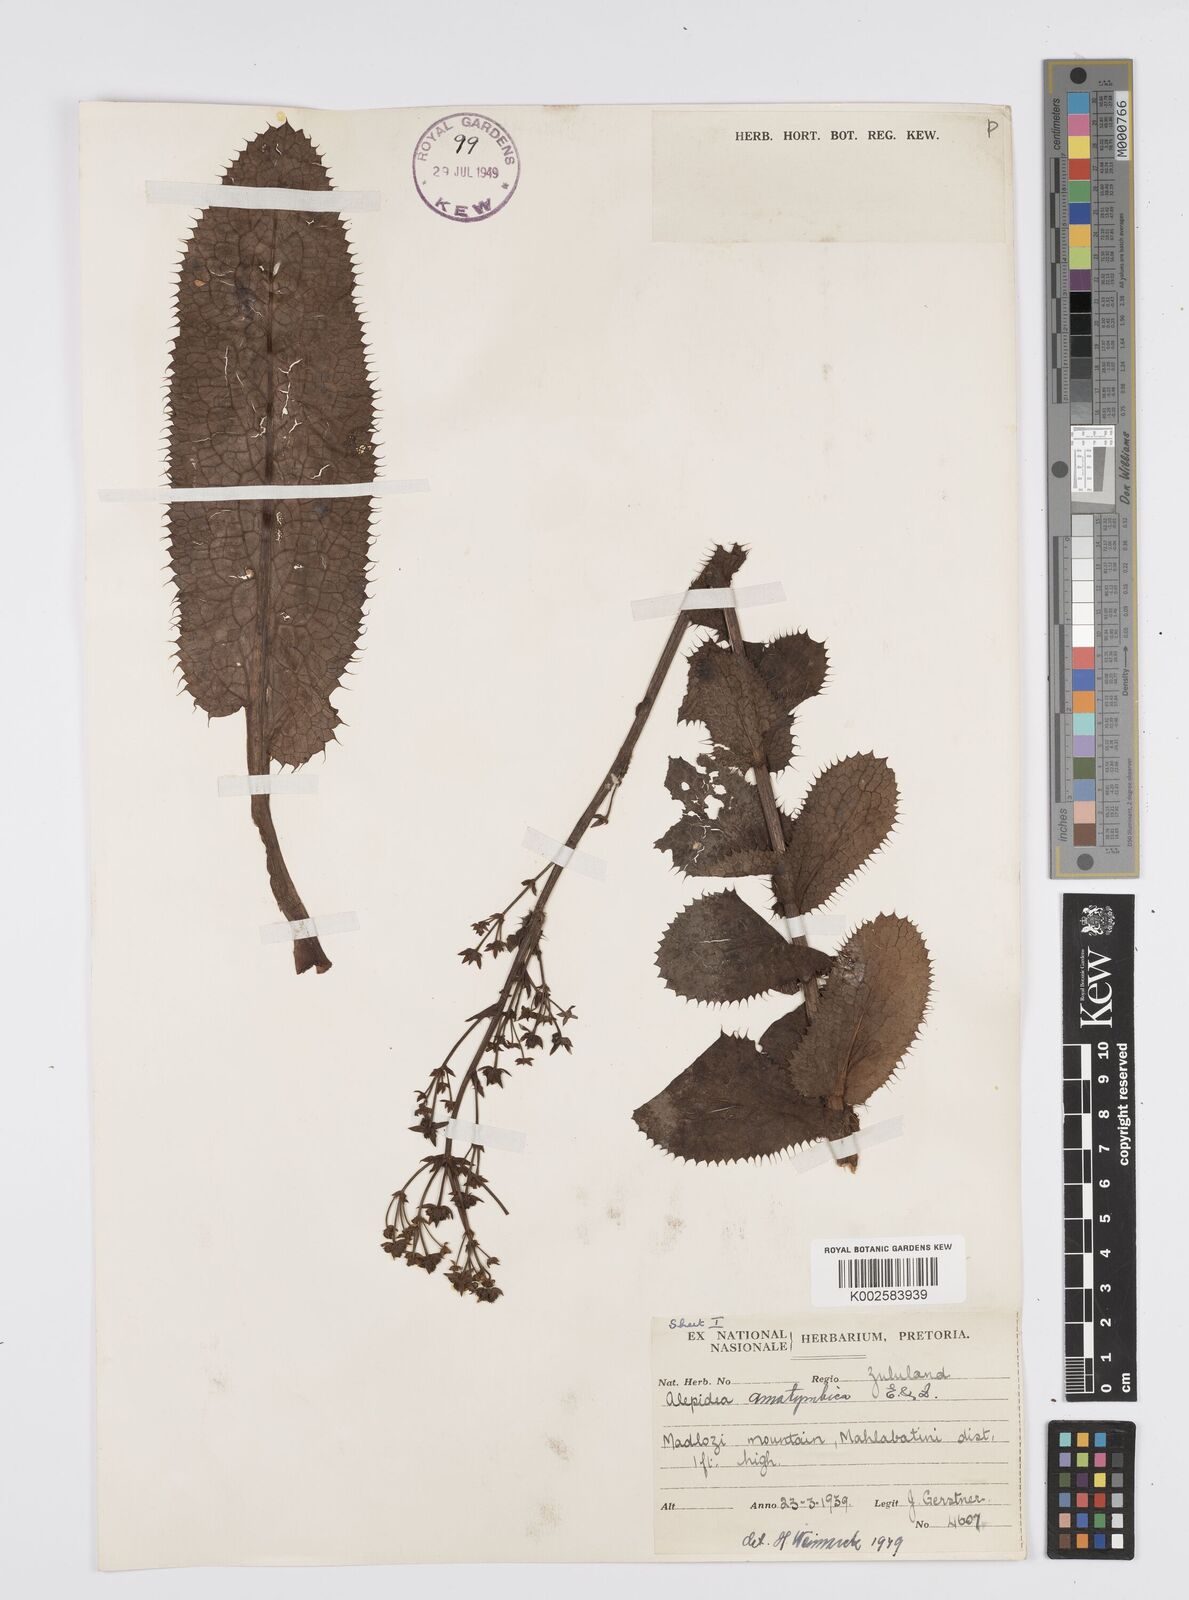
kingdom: Plantae
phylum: Tracheophyta
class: Magnoliopsida
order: Apiales
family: Apiaceae
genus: Alepidea
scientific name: Alepidea amatymbica
